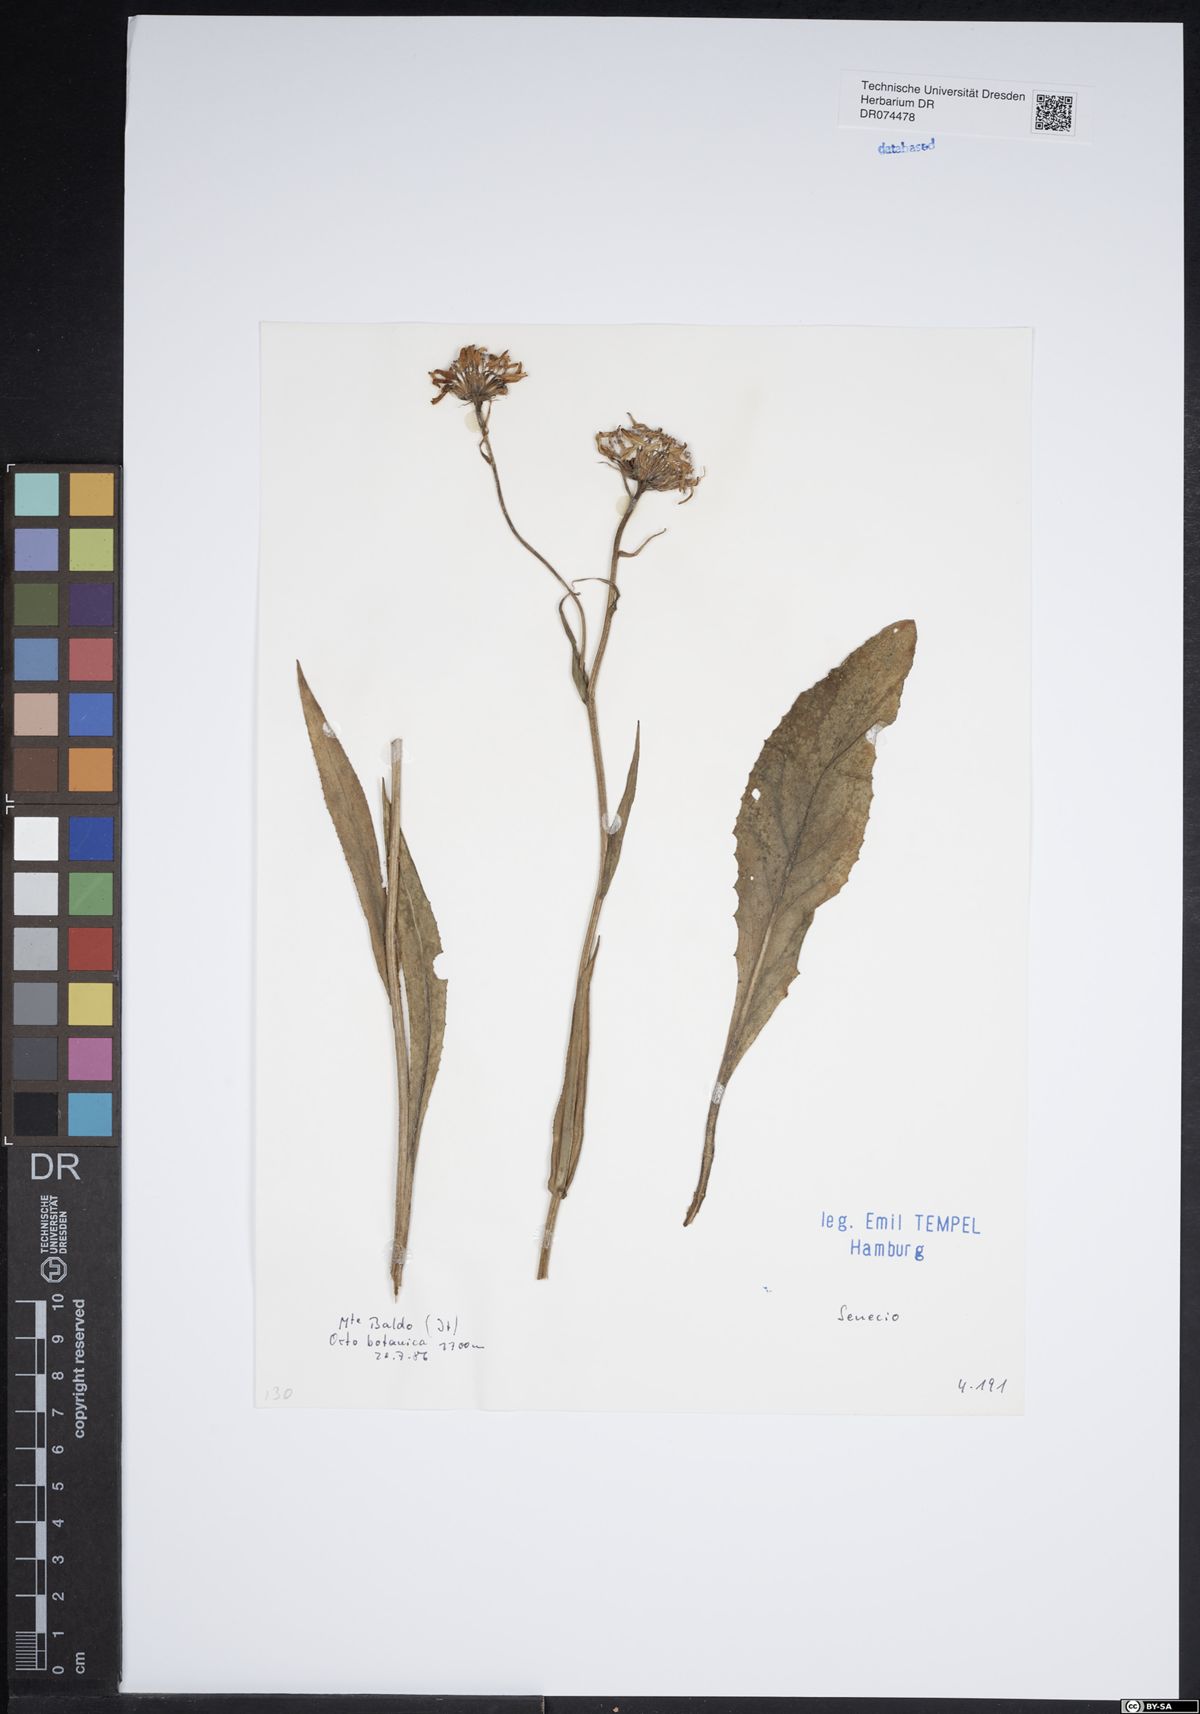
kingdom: Plantae
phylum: Tracheophyta
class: Magnoliopsida
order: Asterales
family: Asteraceae
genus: Senecio
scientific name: Senecio
